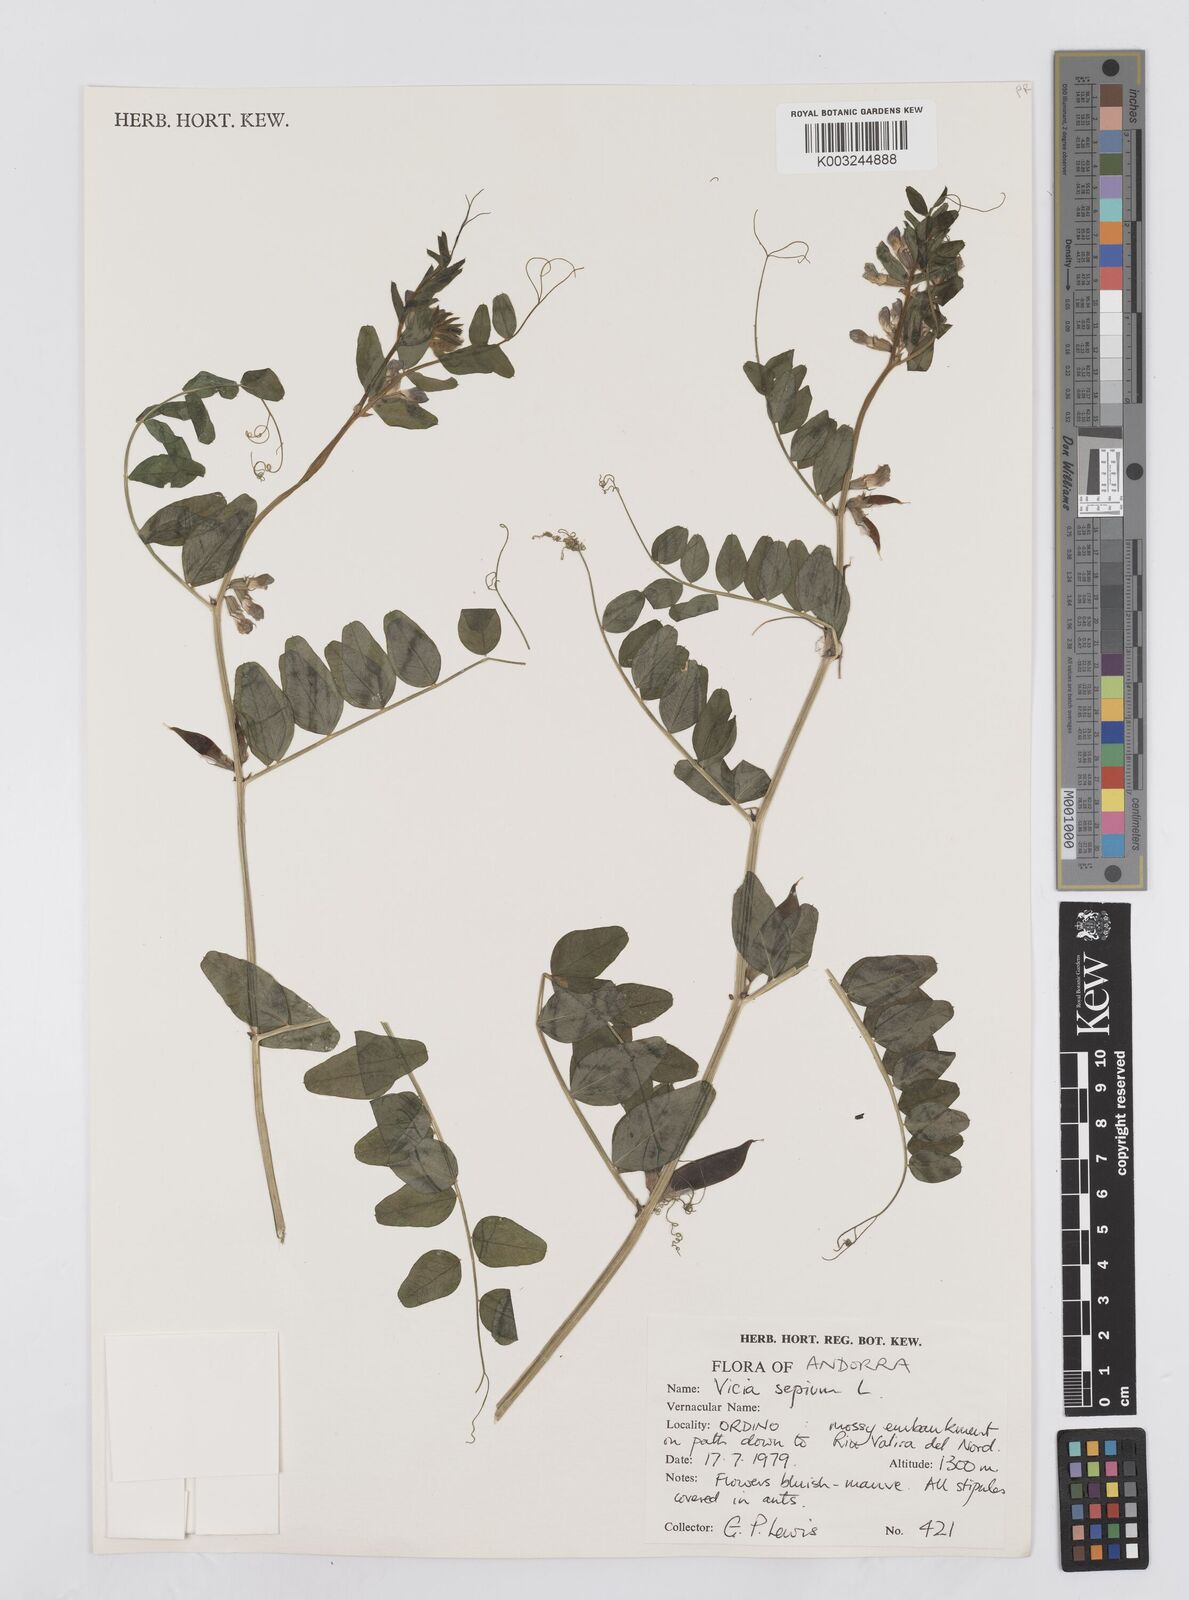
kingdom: Plantae
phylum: Tracheophyta
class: Magnoliopsida
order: Fabales
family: Fabaceae
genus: Vicia
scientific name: Vicia sepium
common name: Bush vetch
